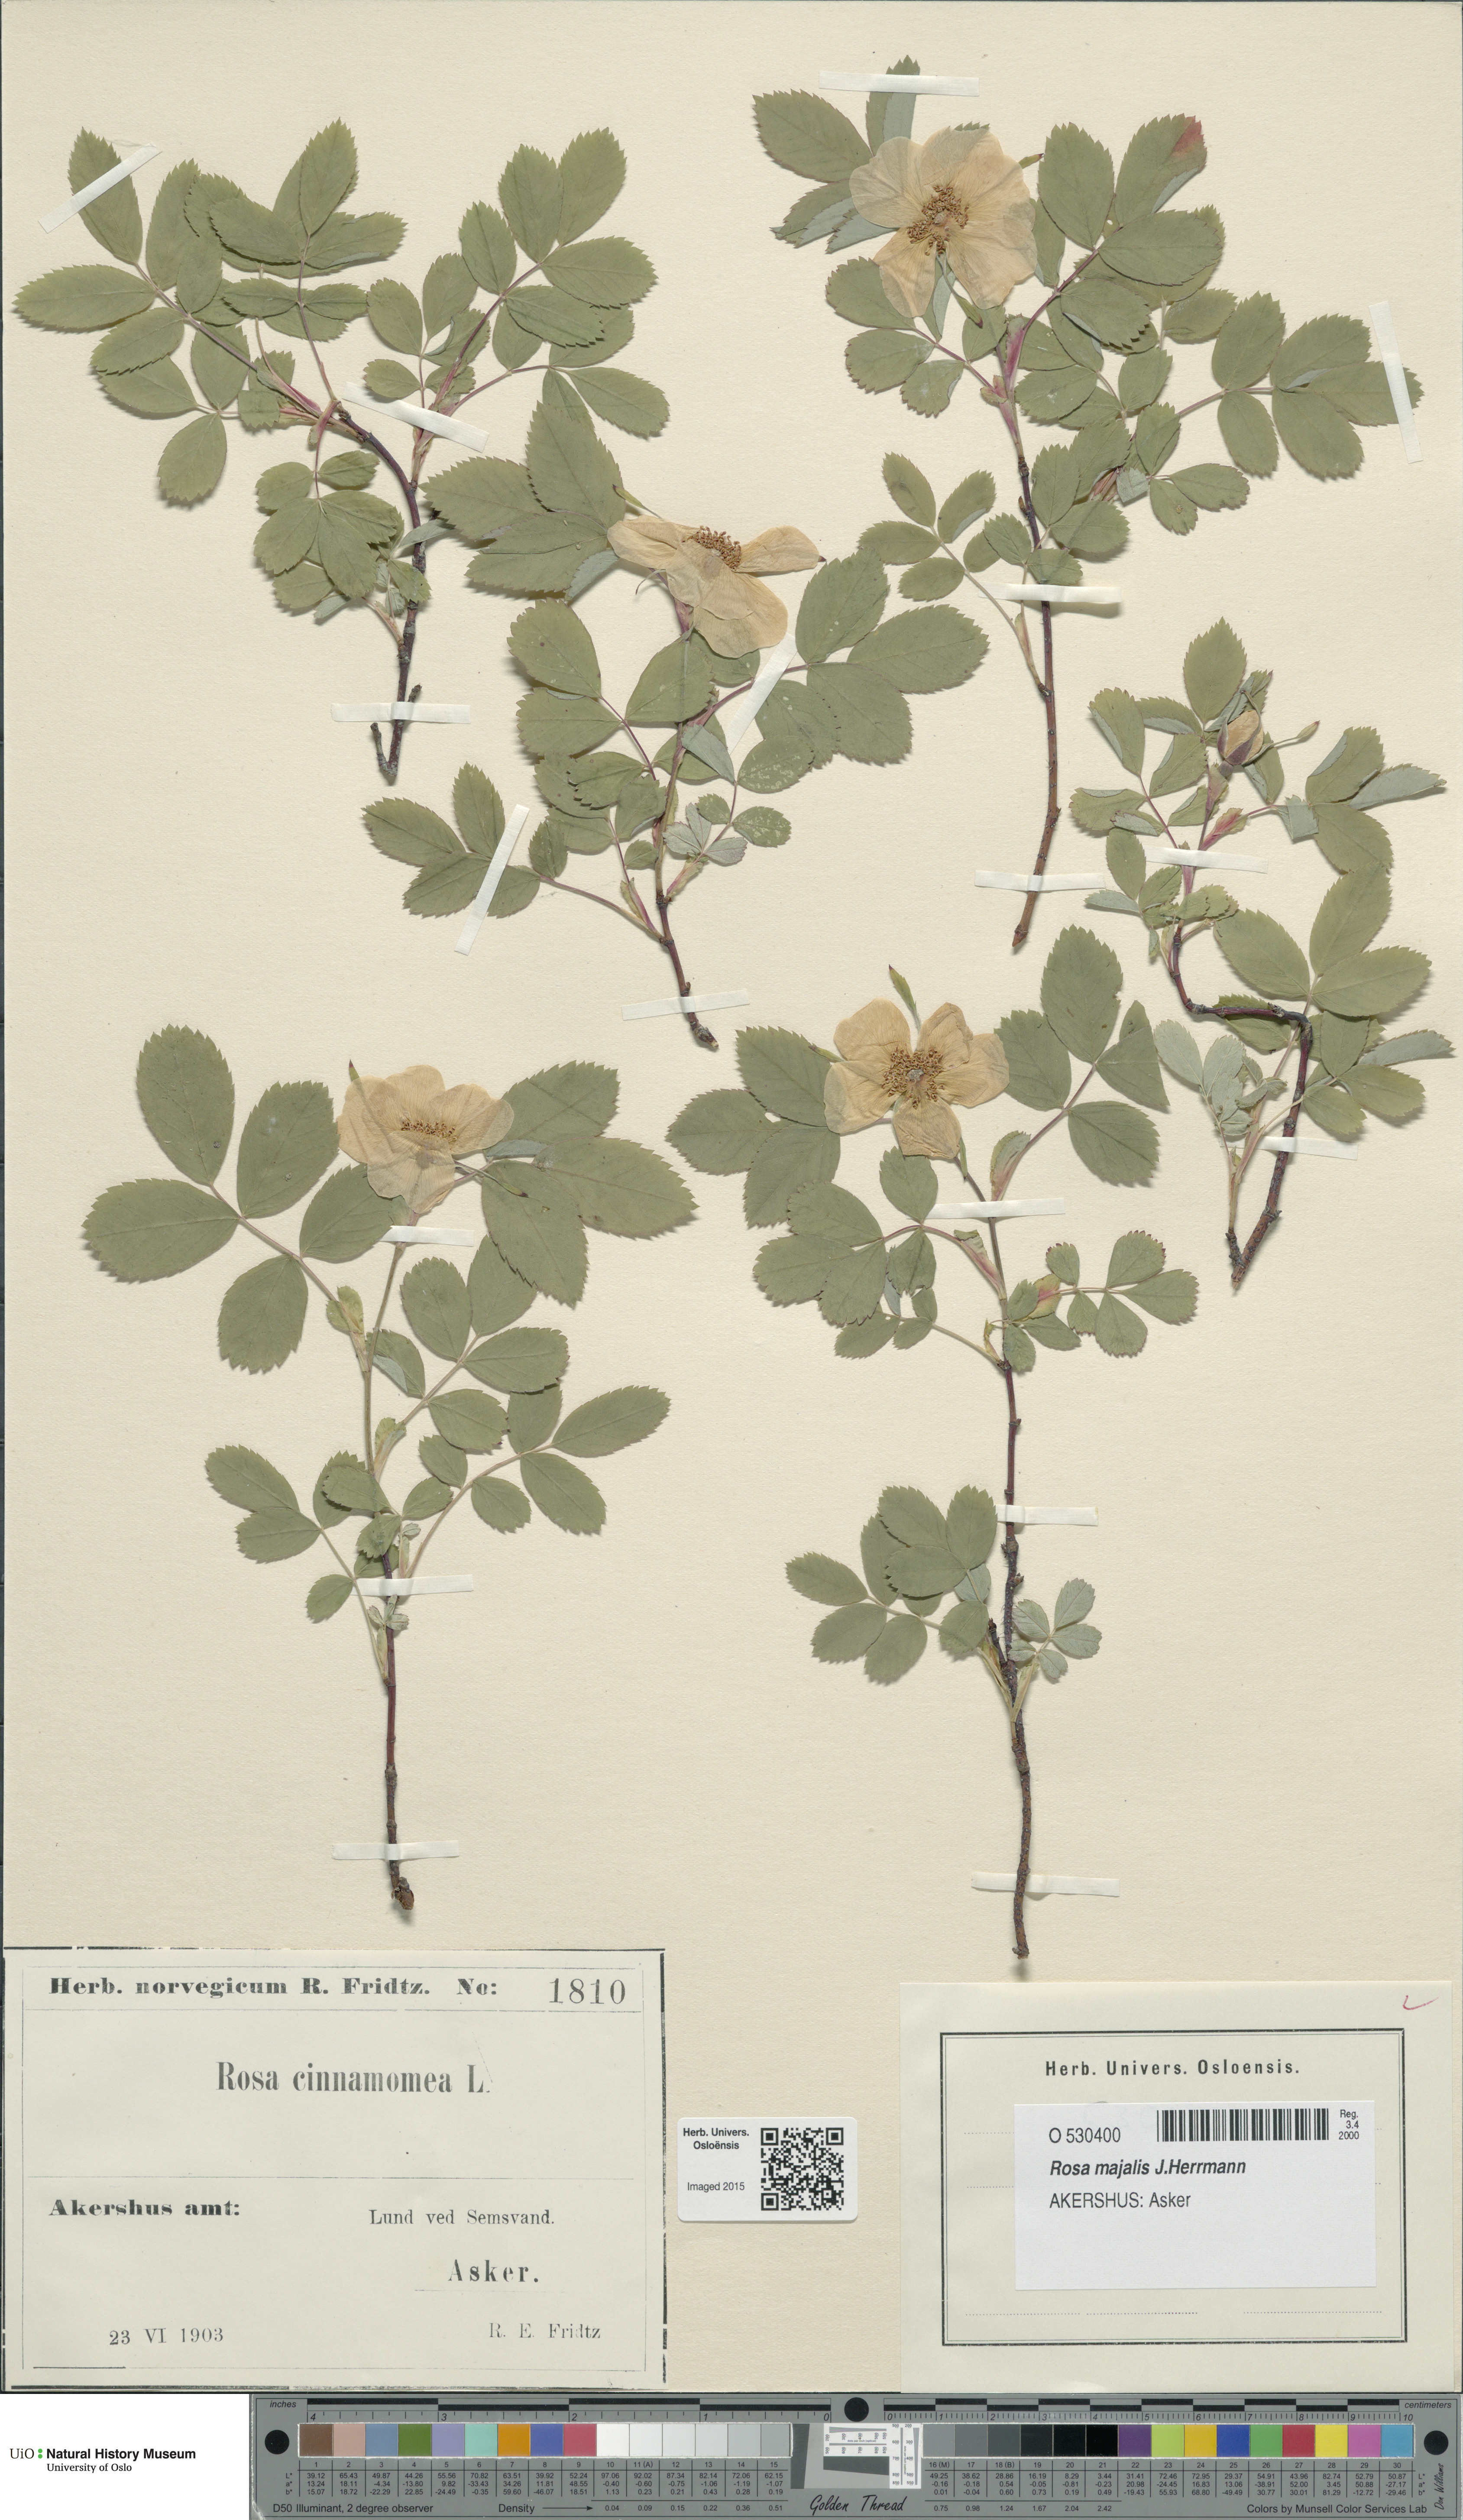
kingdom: Plantae
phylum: Tracheophyta
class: Magnoliopsida
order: Rosales
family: Rosaceae
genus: Rosa
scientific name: Rosa pendulina
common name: Alpine rose
